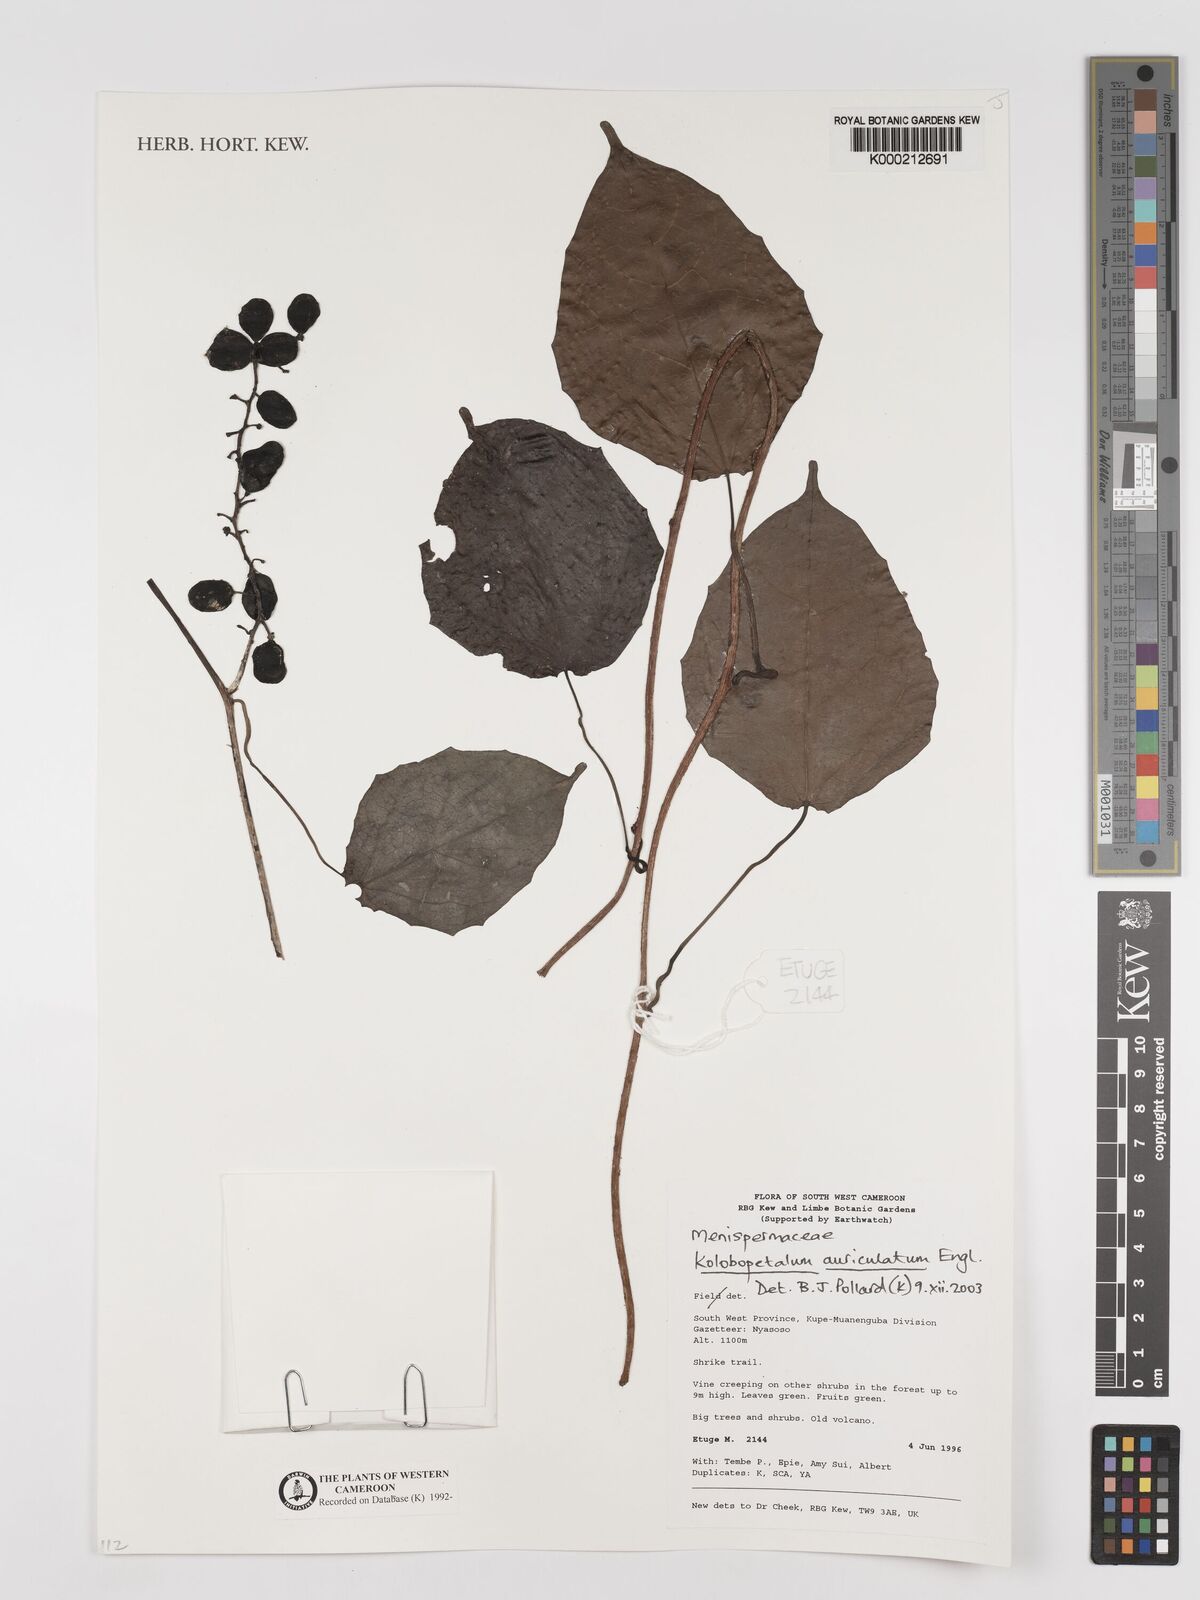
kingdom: Plantae
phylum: Tracheophyta
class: Magnoliopsida
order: Ranunculales
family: Menispermaceae
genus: Kolobopetalum
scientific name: Kolobopetalum auriculatum
